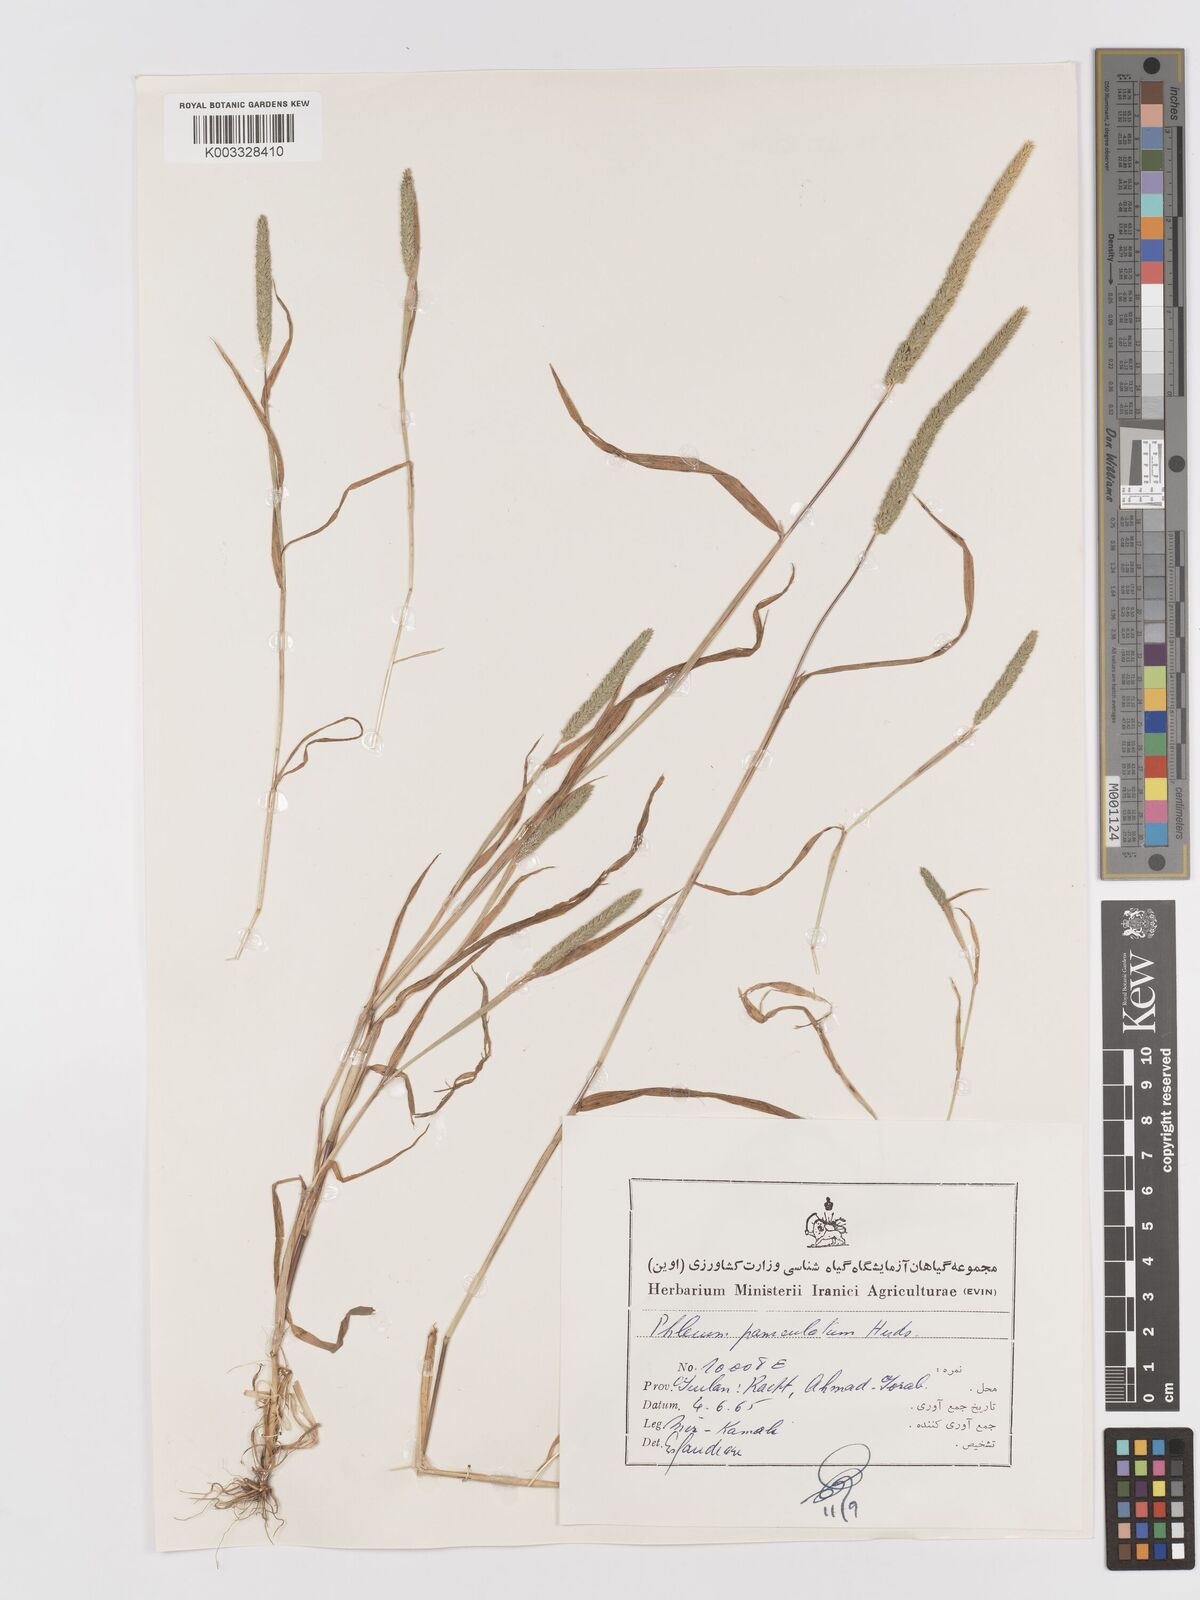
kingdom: Plantae
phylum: Tracheophyta
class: Liliopsida
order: Poales
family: Poaceae
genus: Phleum
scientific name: Phleum paniculatum
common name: British timothy
